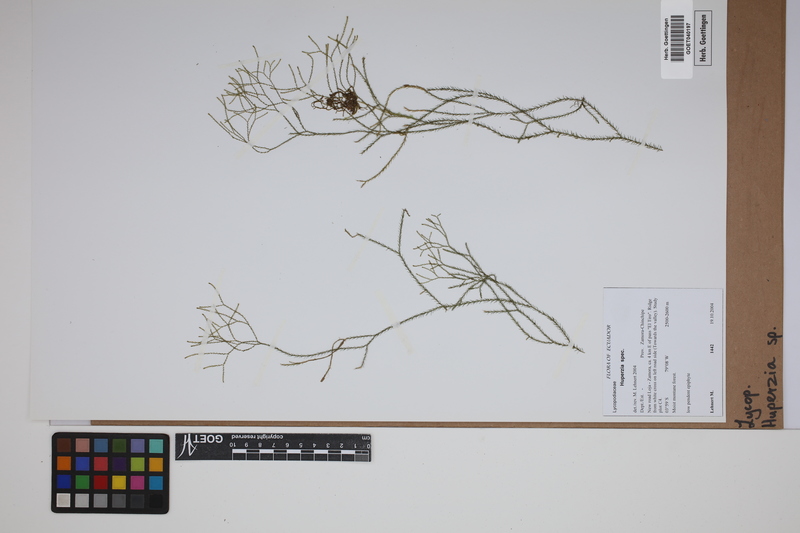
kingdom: Plantae
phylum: Tracheophyta
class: Lycopodiopsida
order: Lycopodiales
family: Lycopodiaceae
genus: Phlegmariurus
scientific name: Phlegmariurus
